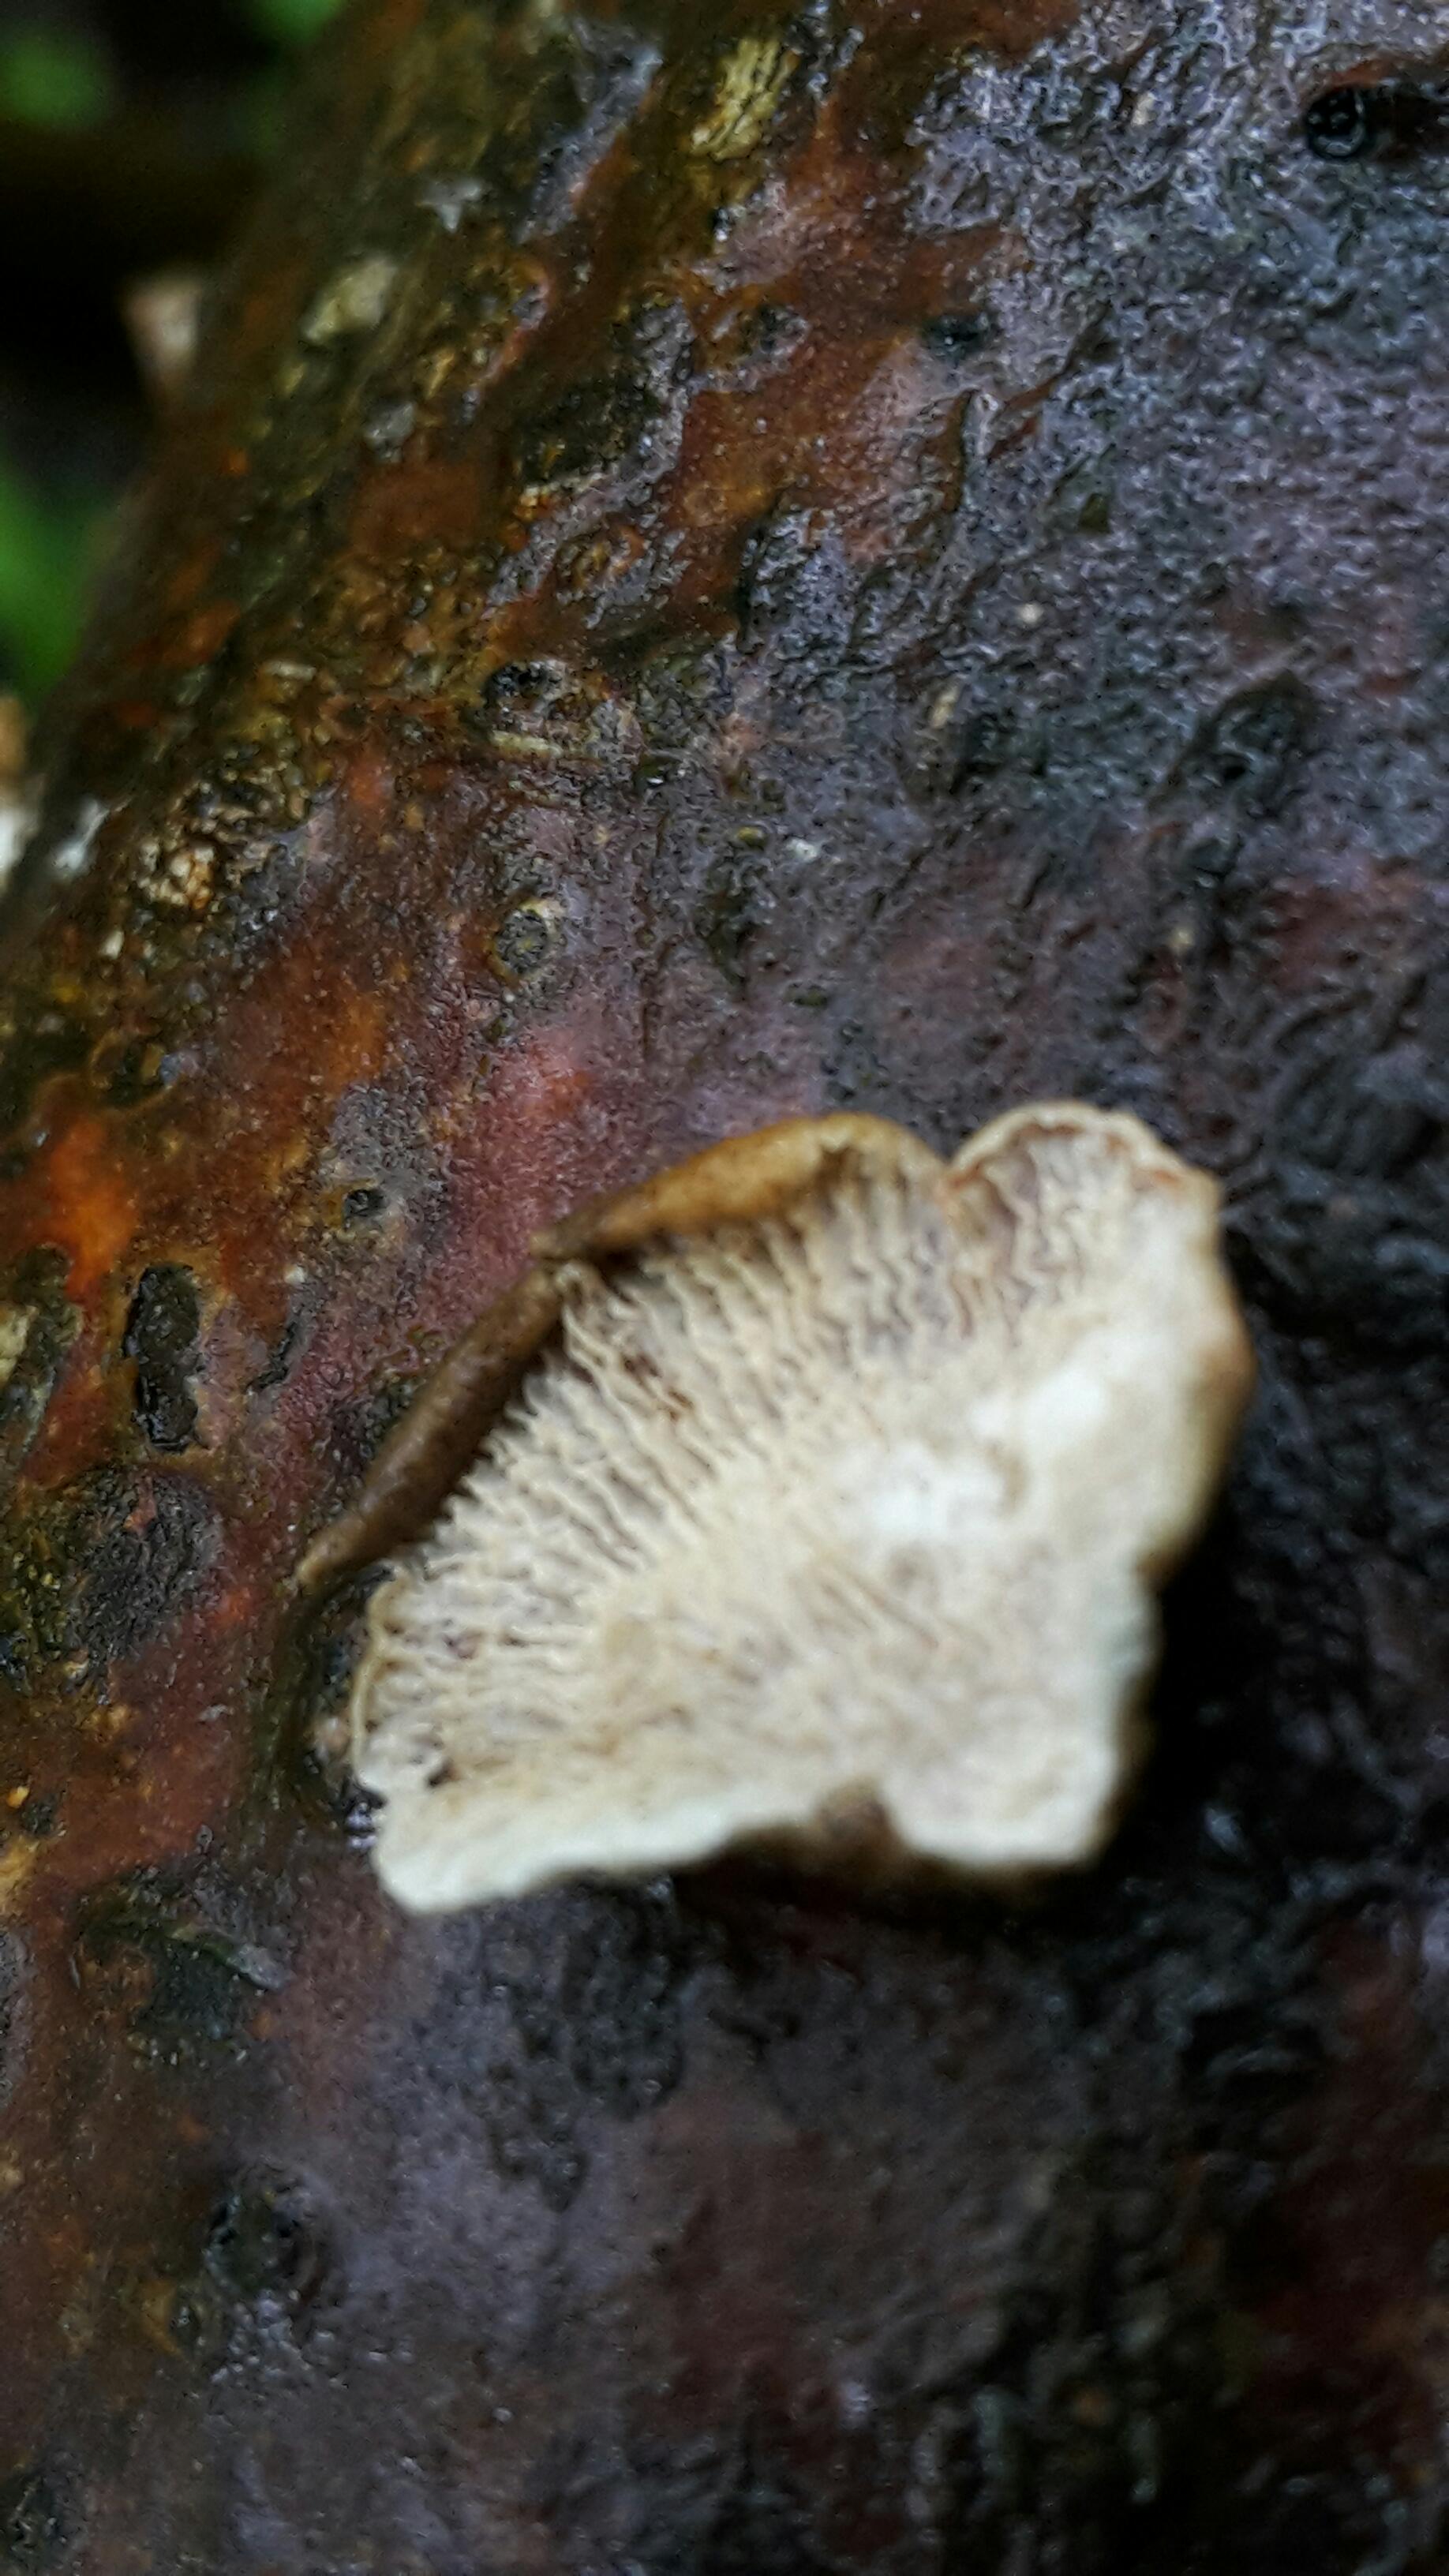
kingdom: Fungi
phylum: Basidiomycota
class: Agaricomycetes
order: Amylocorticiales
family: Amylocorticiaceae
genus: Plicaturopsis
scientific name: Plicaturopsis crispa
